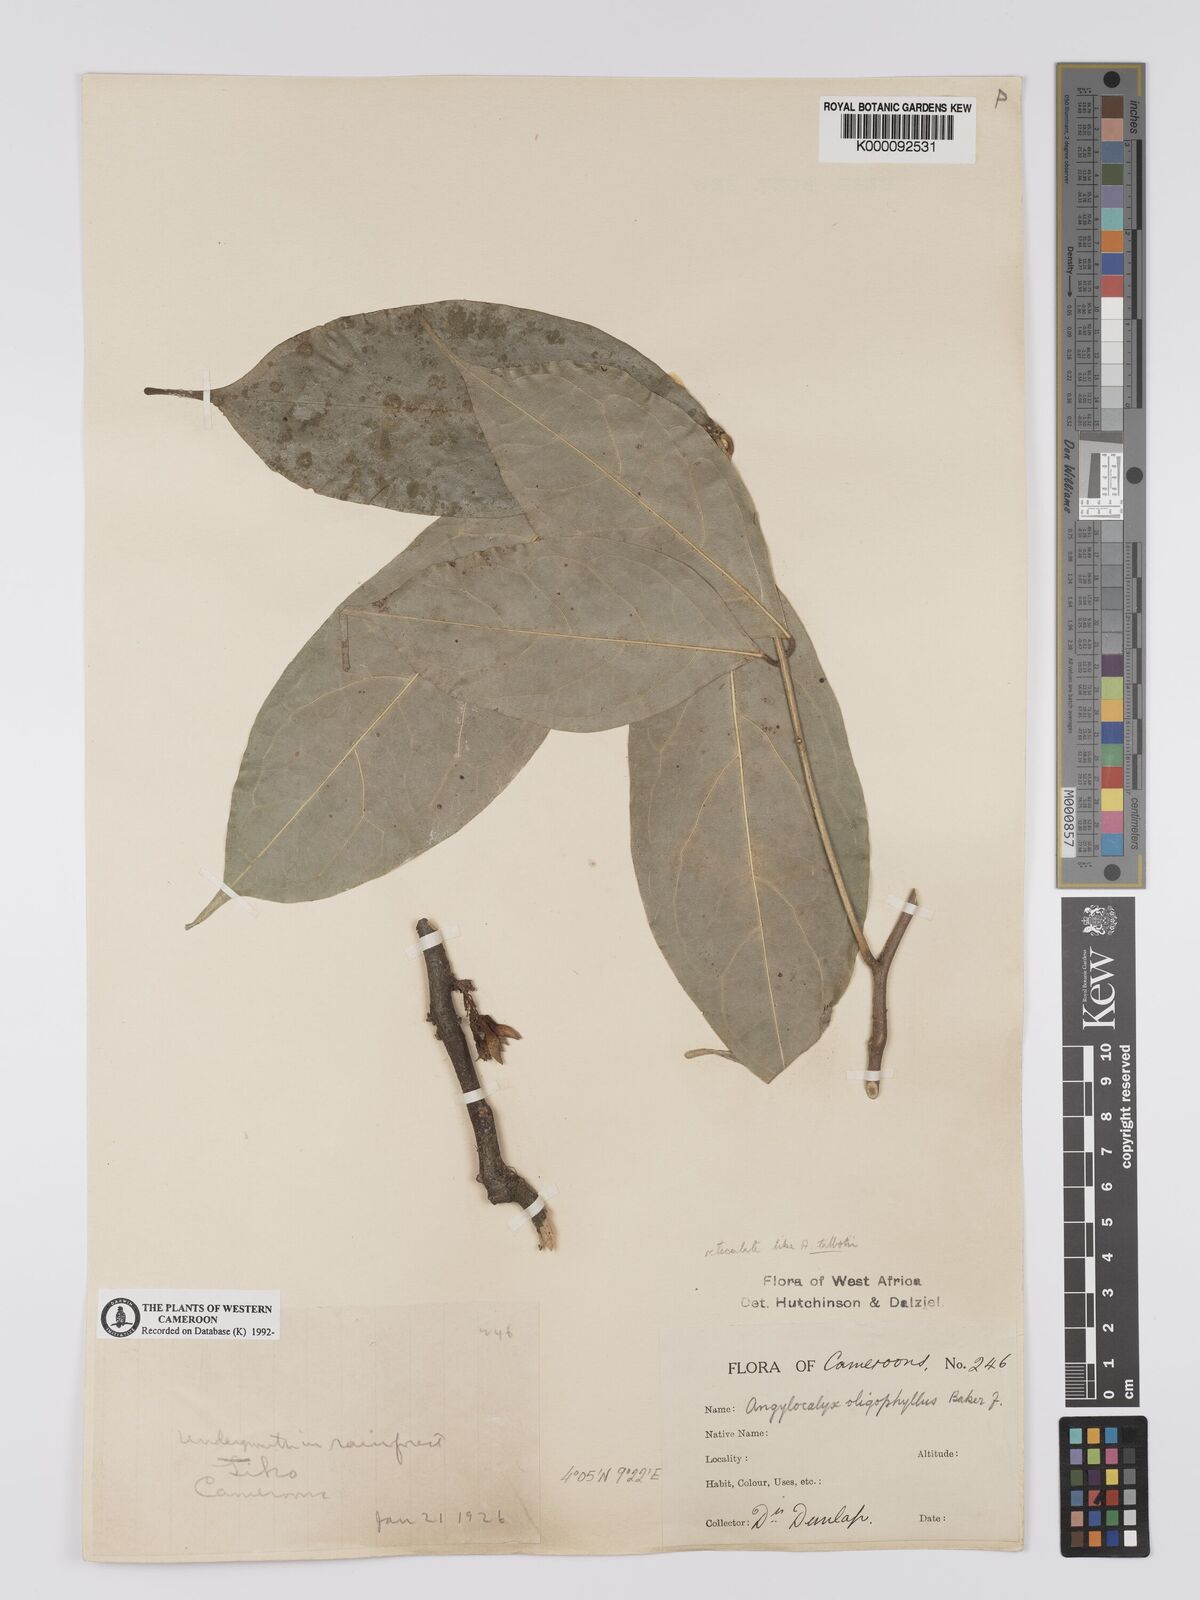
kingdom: Plantae
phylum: Tracheophyta
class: Magnoliopsida
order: Fabales
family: Fabaceae
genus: Angylocalyx
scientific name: Angylocalyx oligophyllus
